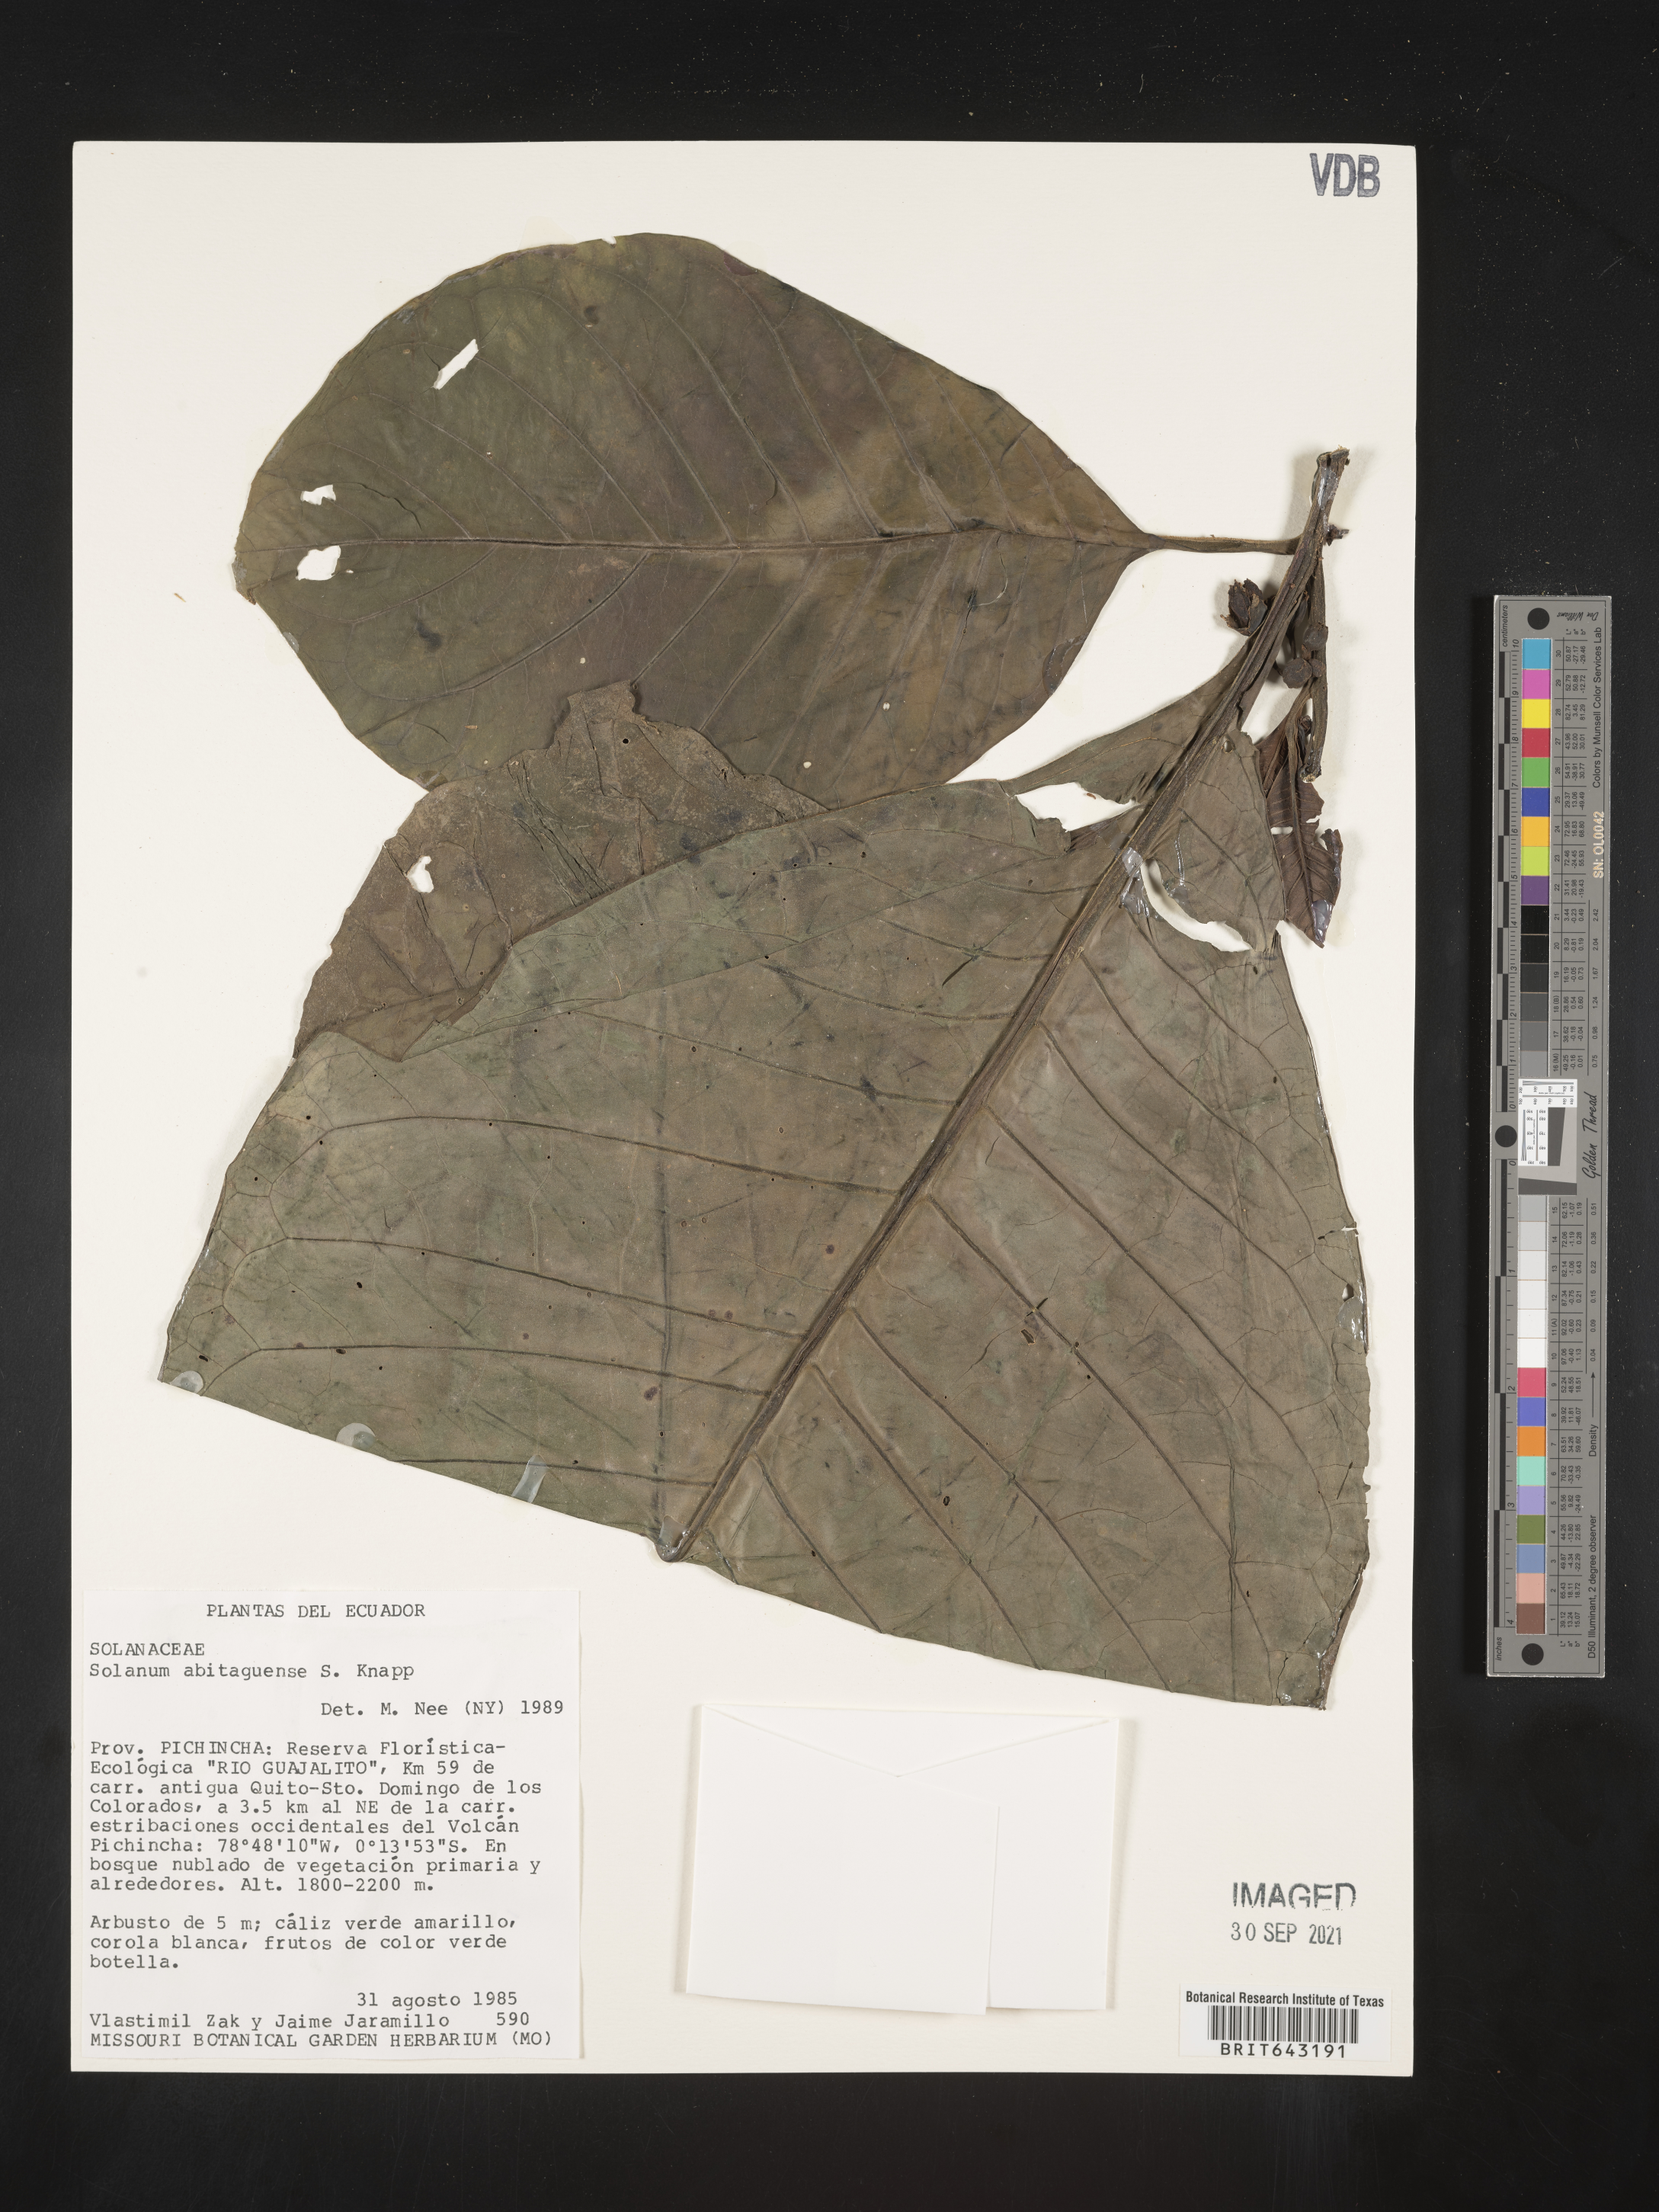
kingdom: Plantae
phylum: Tracheophyta
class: Magnoliopsida
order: Solanales
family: Solanaceae
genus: Solanum
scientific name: Solanum
